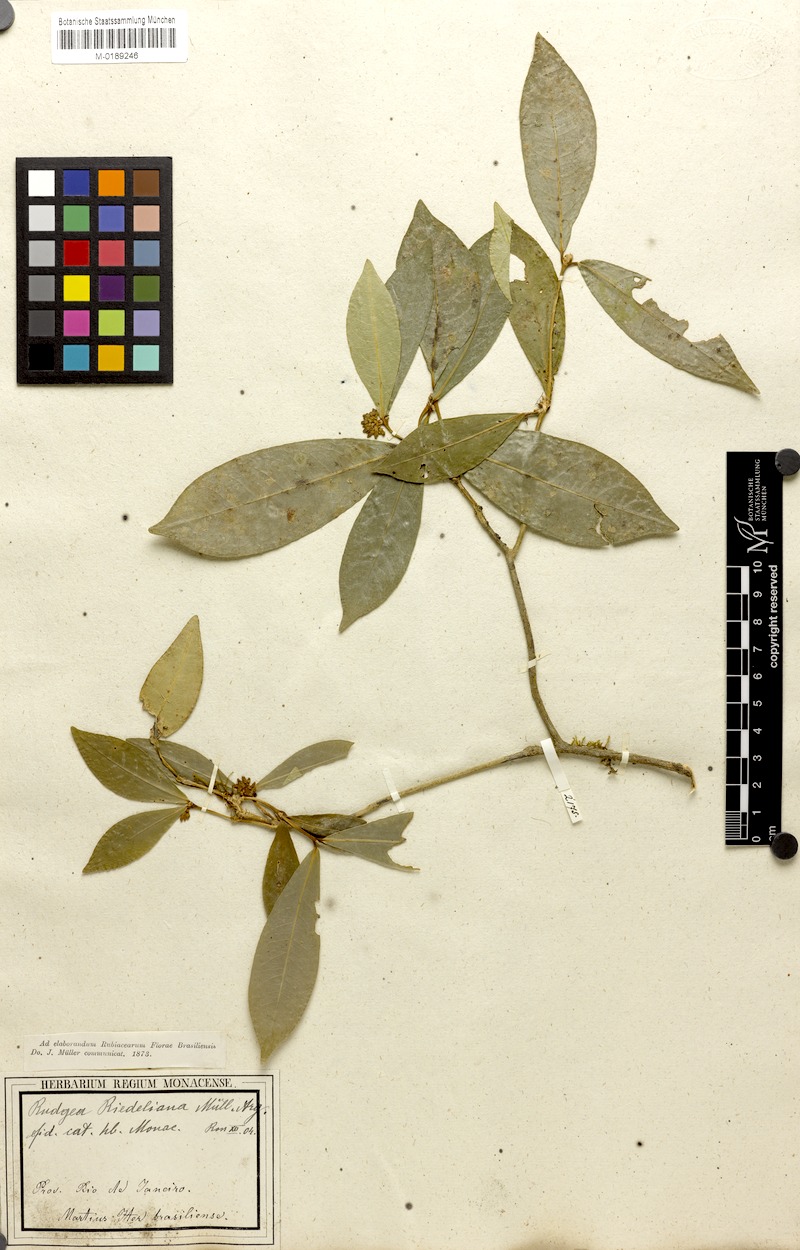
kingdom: Plantae
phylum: Tracheophyta
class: Magnoliopsida
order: Gentianales
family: Rubiaceae
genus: Rudgea
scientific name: Rudgea coronata
